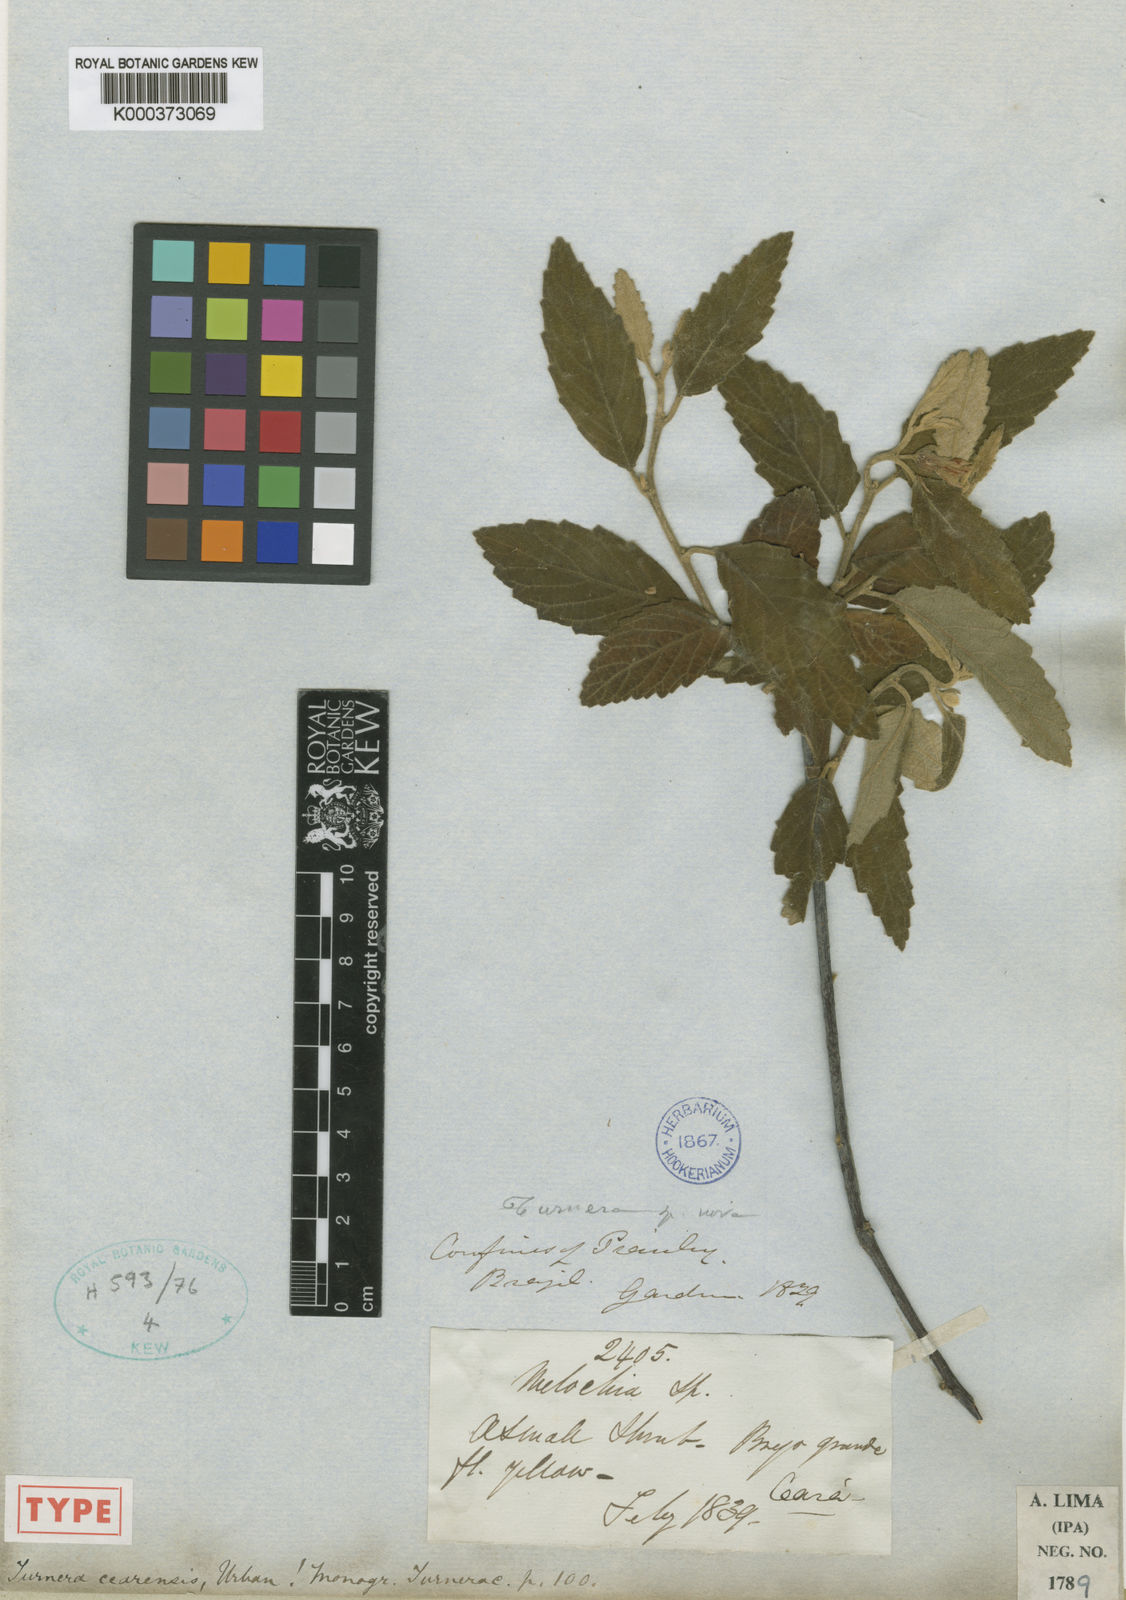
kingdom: Plantae
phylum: Tracheophyta
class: Magnoliopsida
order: Malpighiales
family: Turneraceae
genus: Turnera
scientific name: Turnera cearensis
